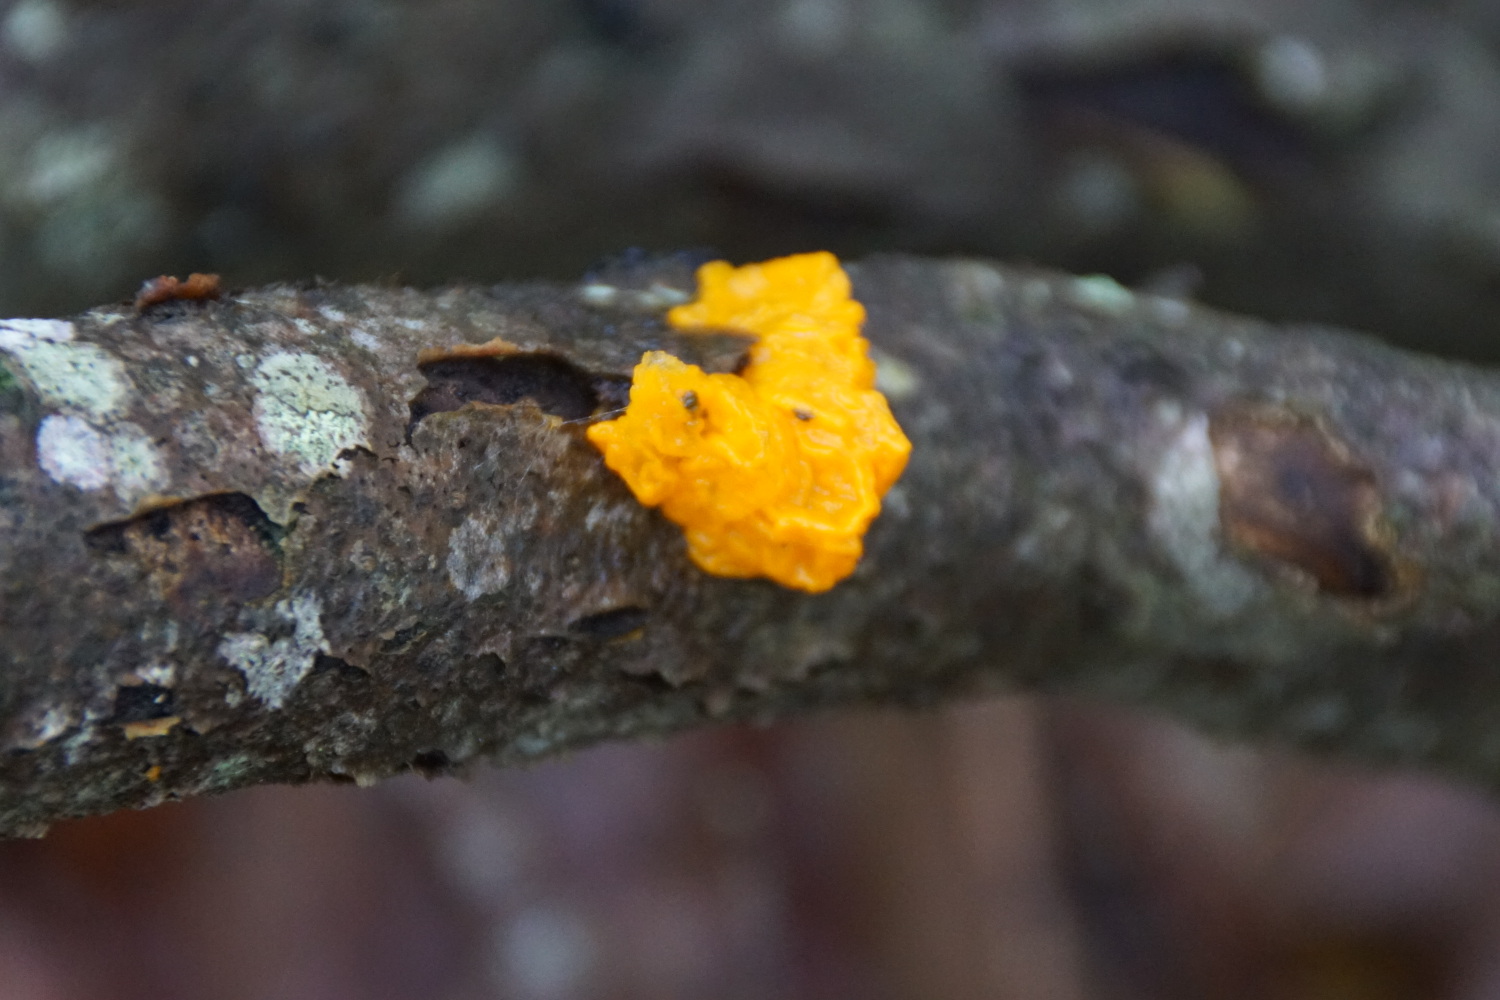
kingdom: Fungi
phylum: Basidiomycota
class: Tremellomycetes
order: Tremellales
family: Tremellaceae
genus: Tremella
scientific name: Tremella mesenterica
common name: gul bævresvamp
